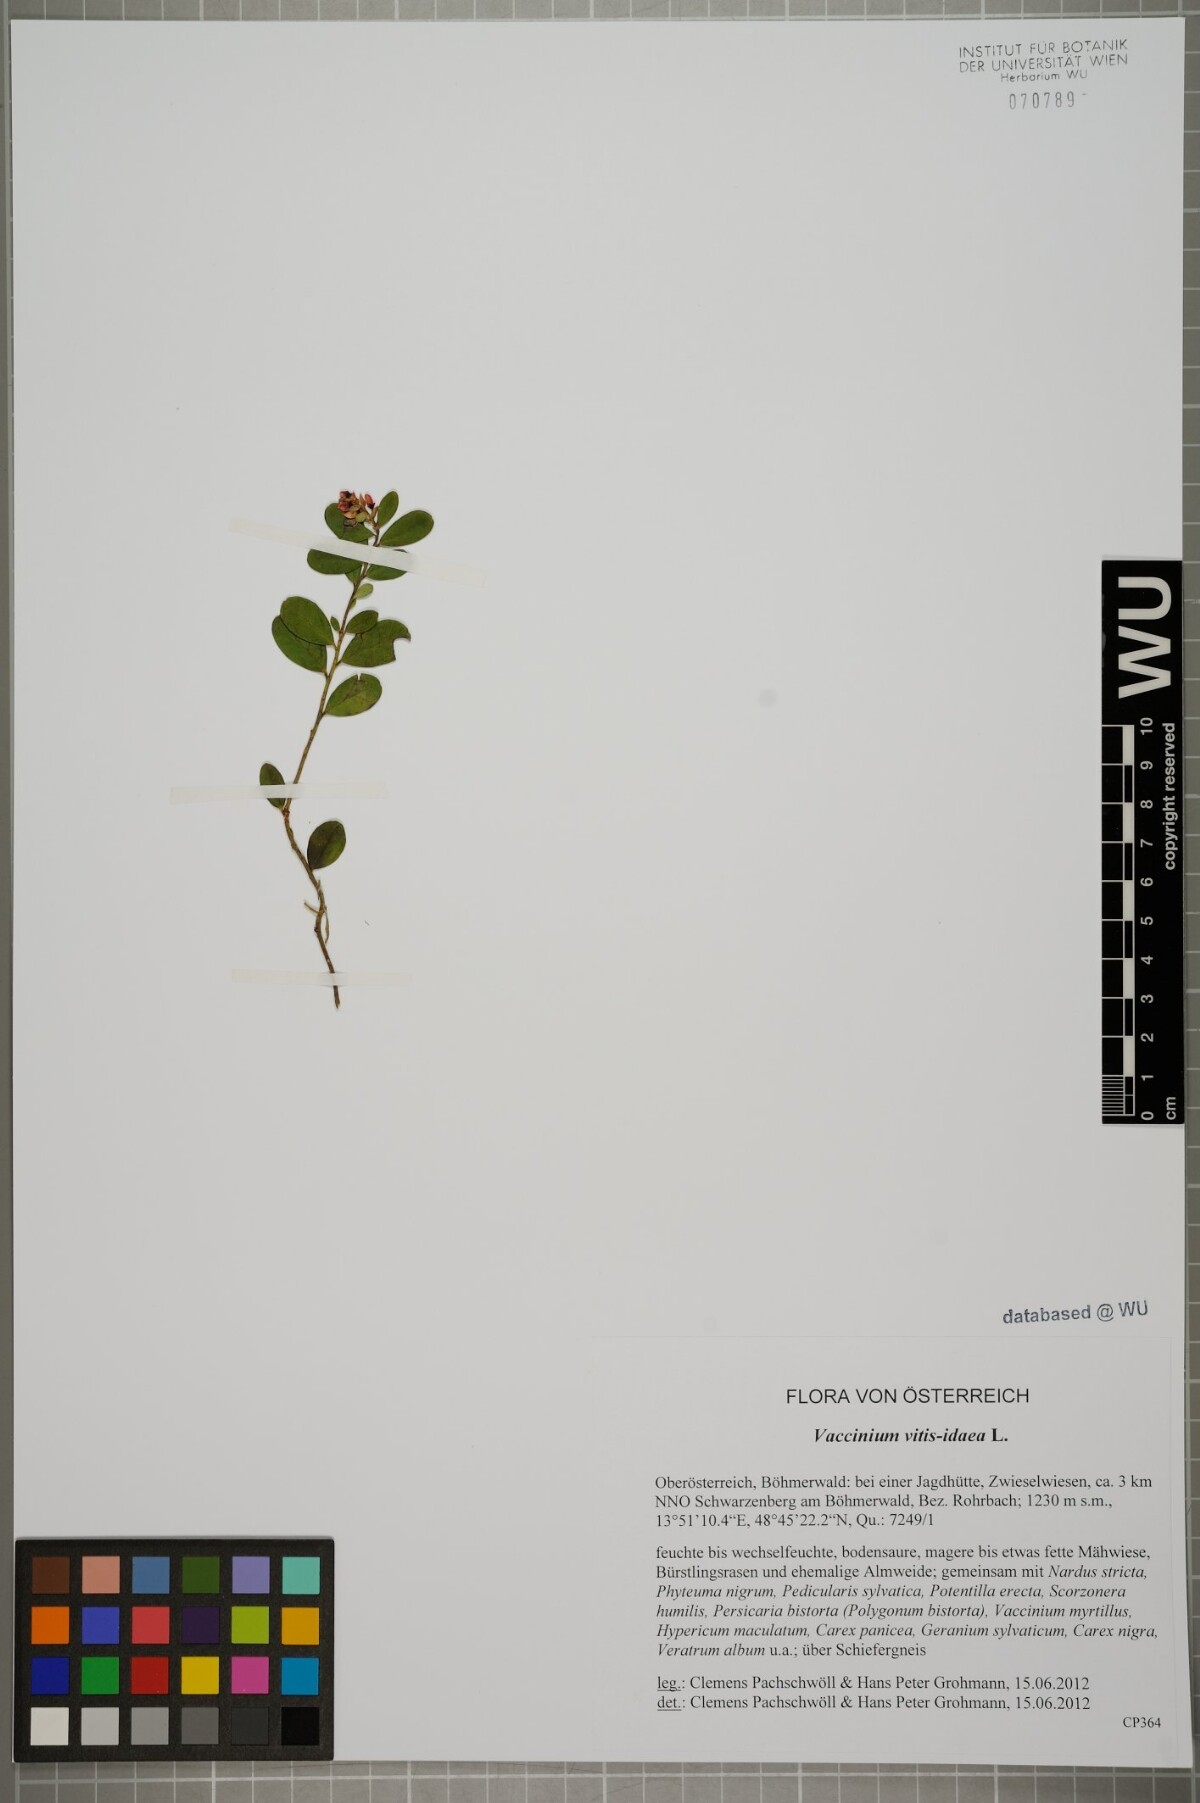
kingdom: Plantae
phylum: Tracheophyta
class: Magnoliopsida
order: Ericales
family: Ericaceae
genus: Vaccinium
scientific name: Vaccinium vitis-idaea
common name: Cowberry
